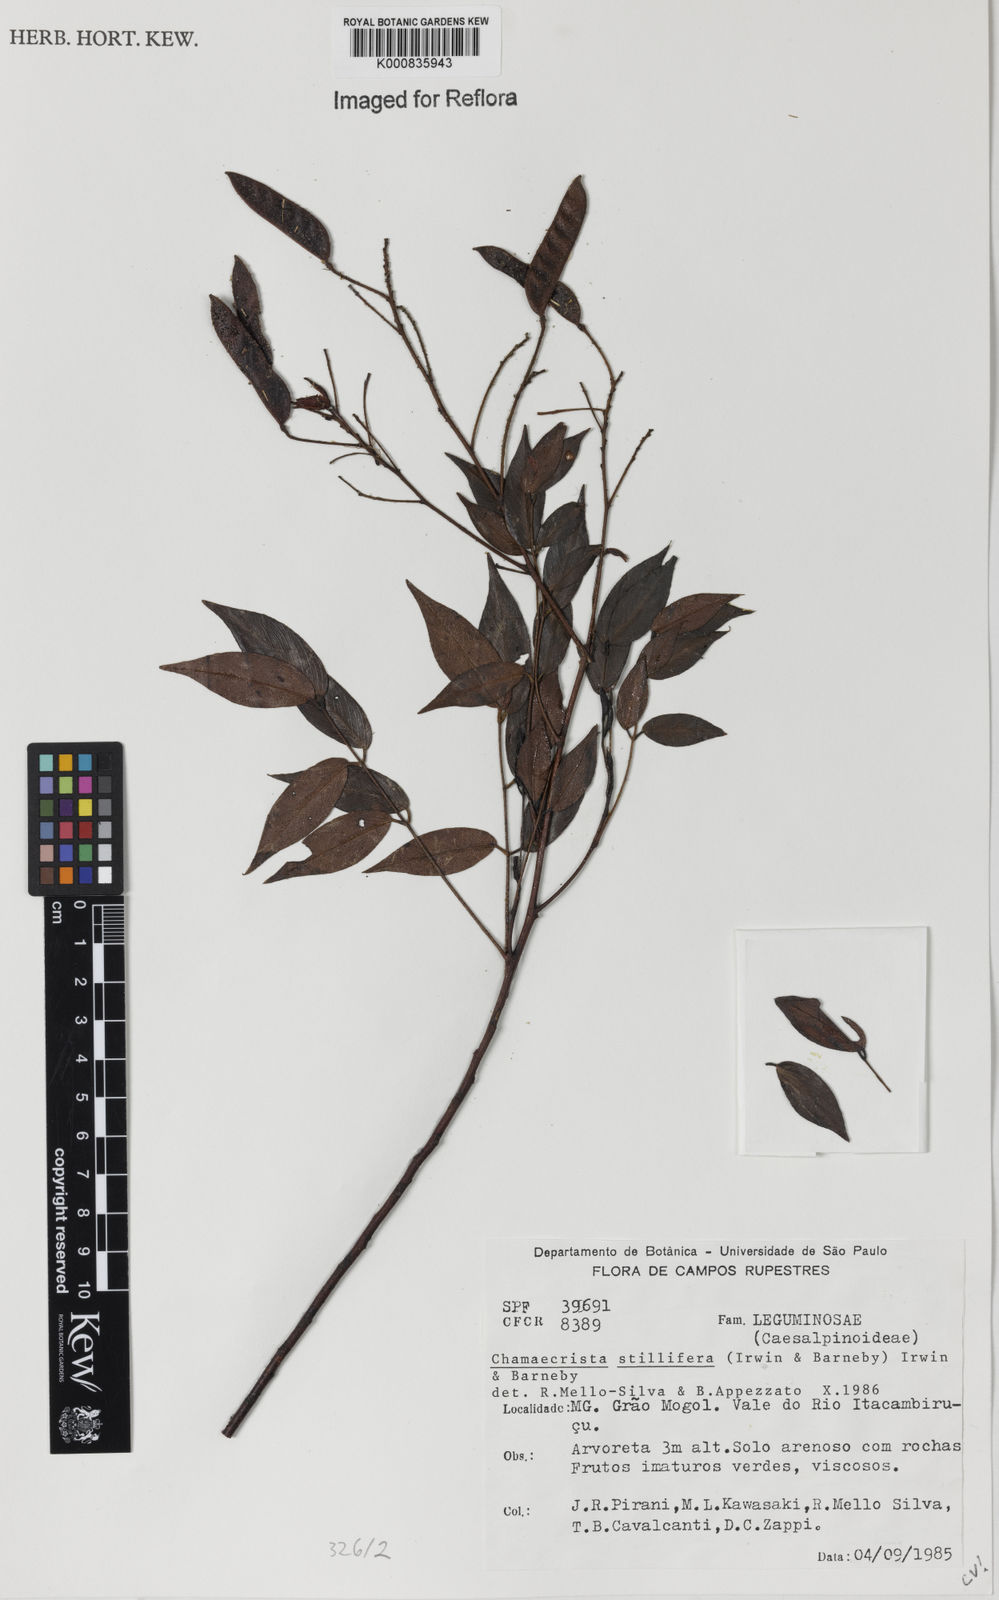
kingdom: Plantae
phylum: Tracheophyta
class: Magnoliopsida
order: Fabales
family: Fabaceae
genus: Chamaecrista
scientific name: Chamaecrista stillifera
